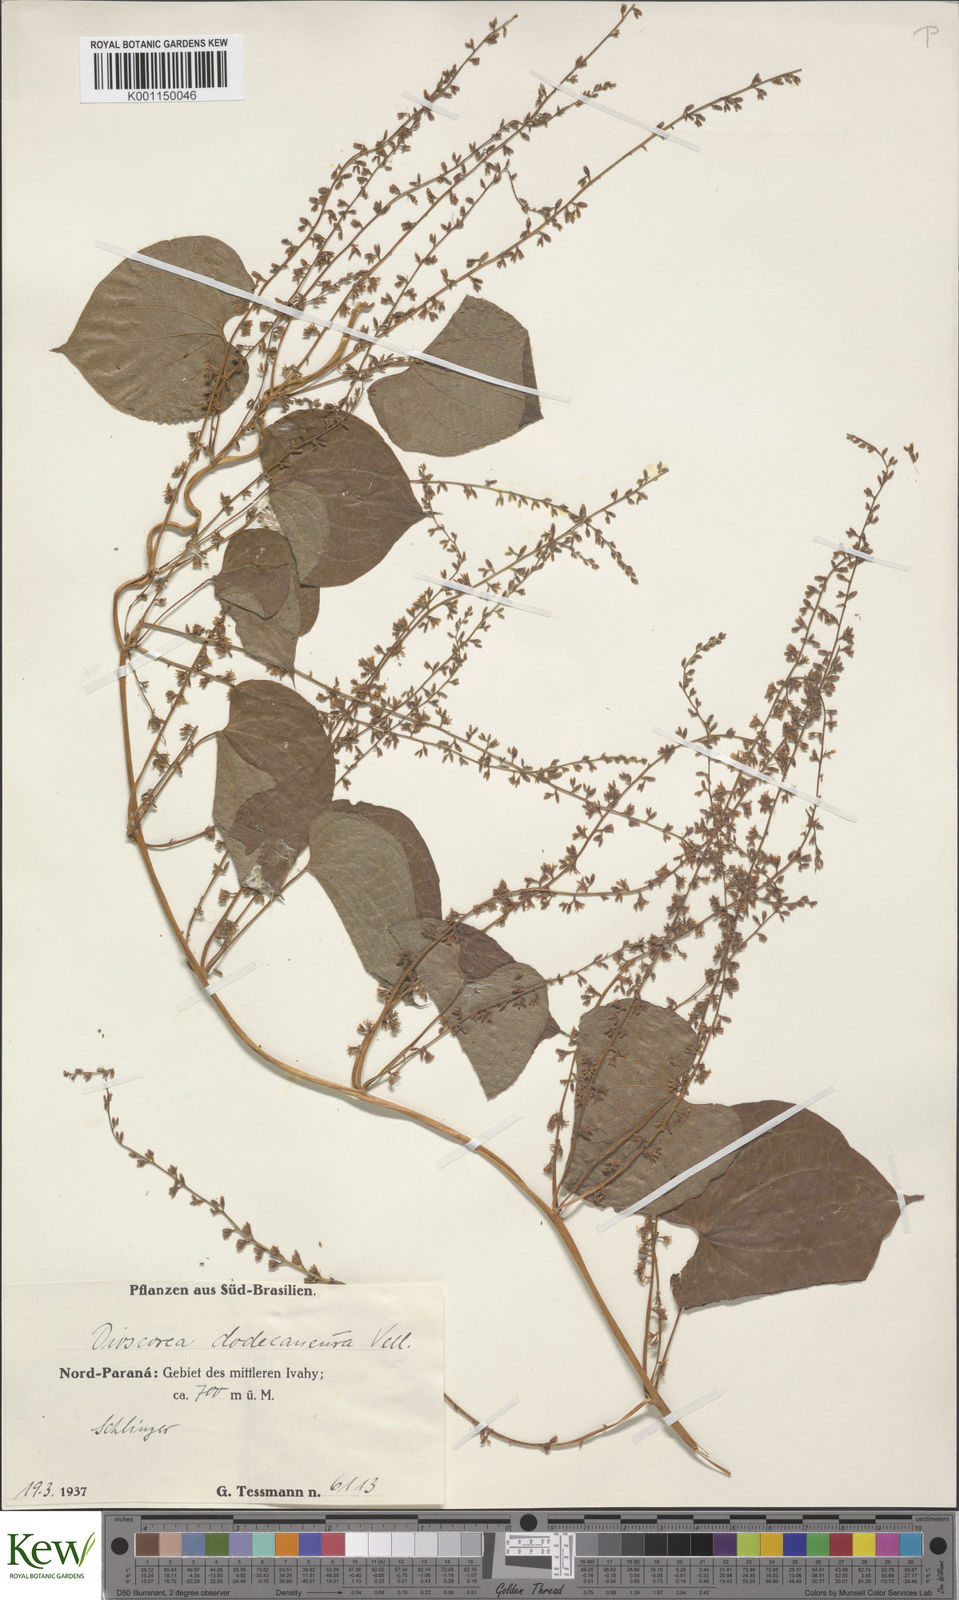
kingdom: Plantae
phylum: Tracheophyta
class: Liliopsida
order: Dioscoreales
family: Dioscoreaceae
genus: Dioscorea
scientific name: Dioscorea dodecaneura
